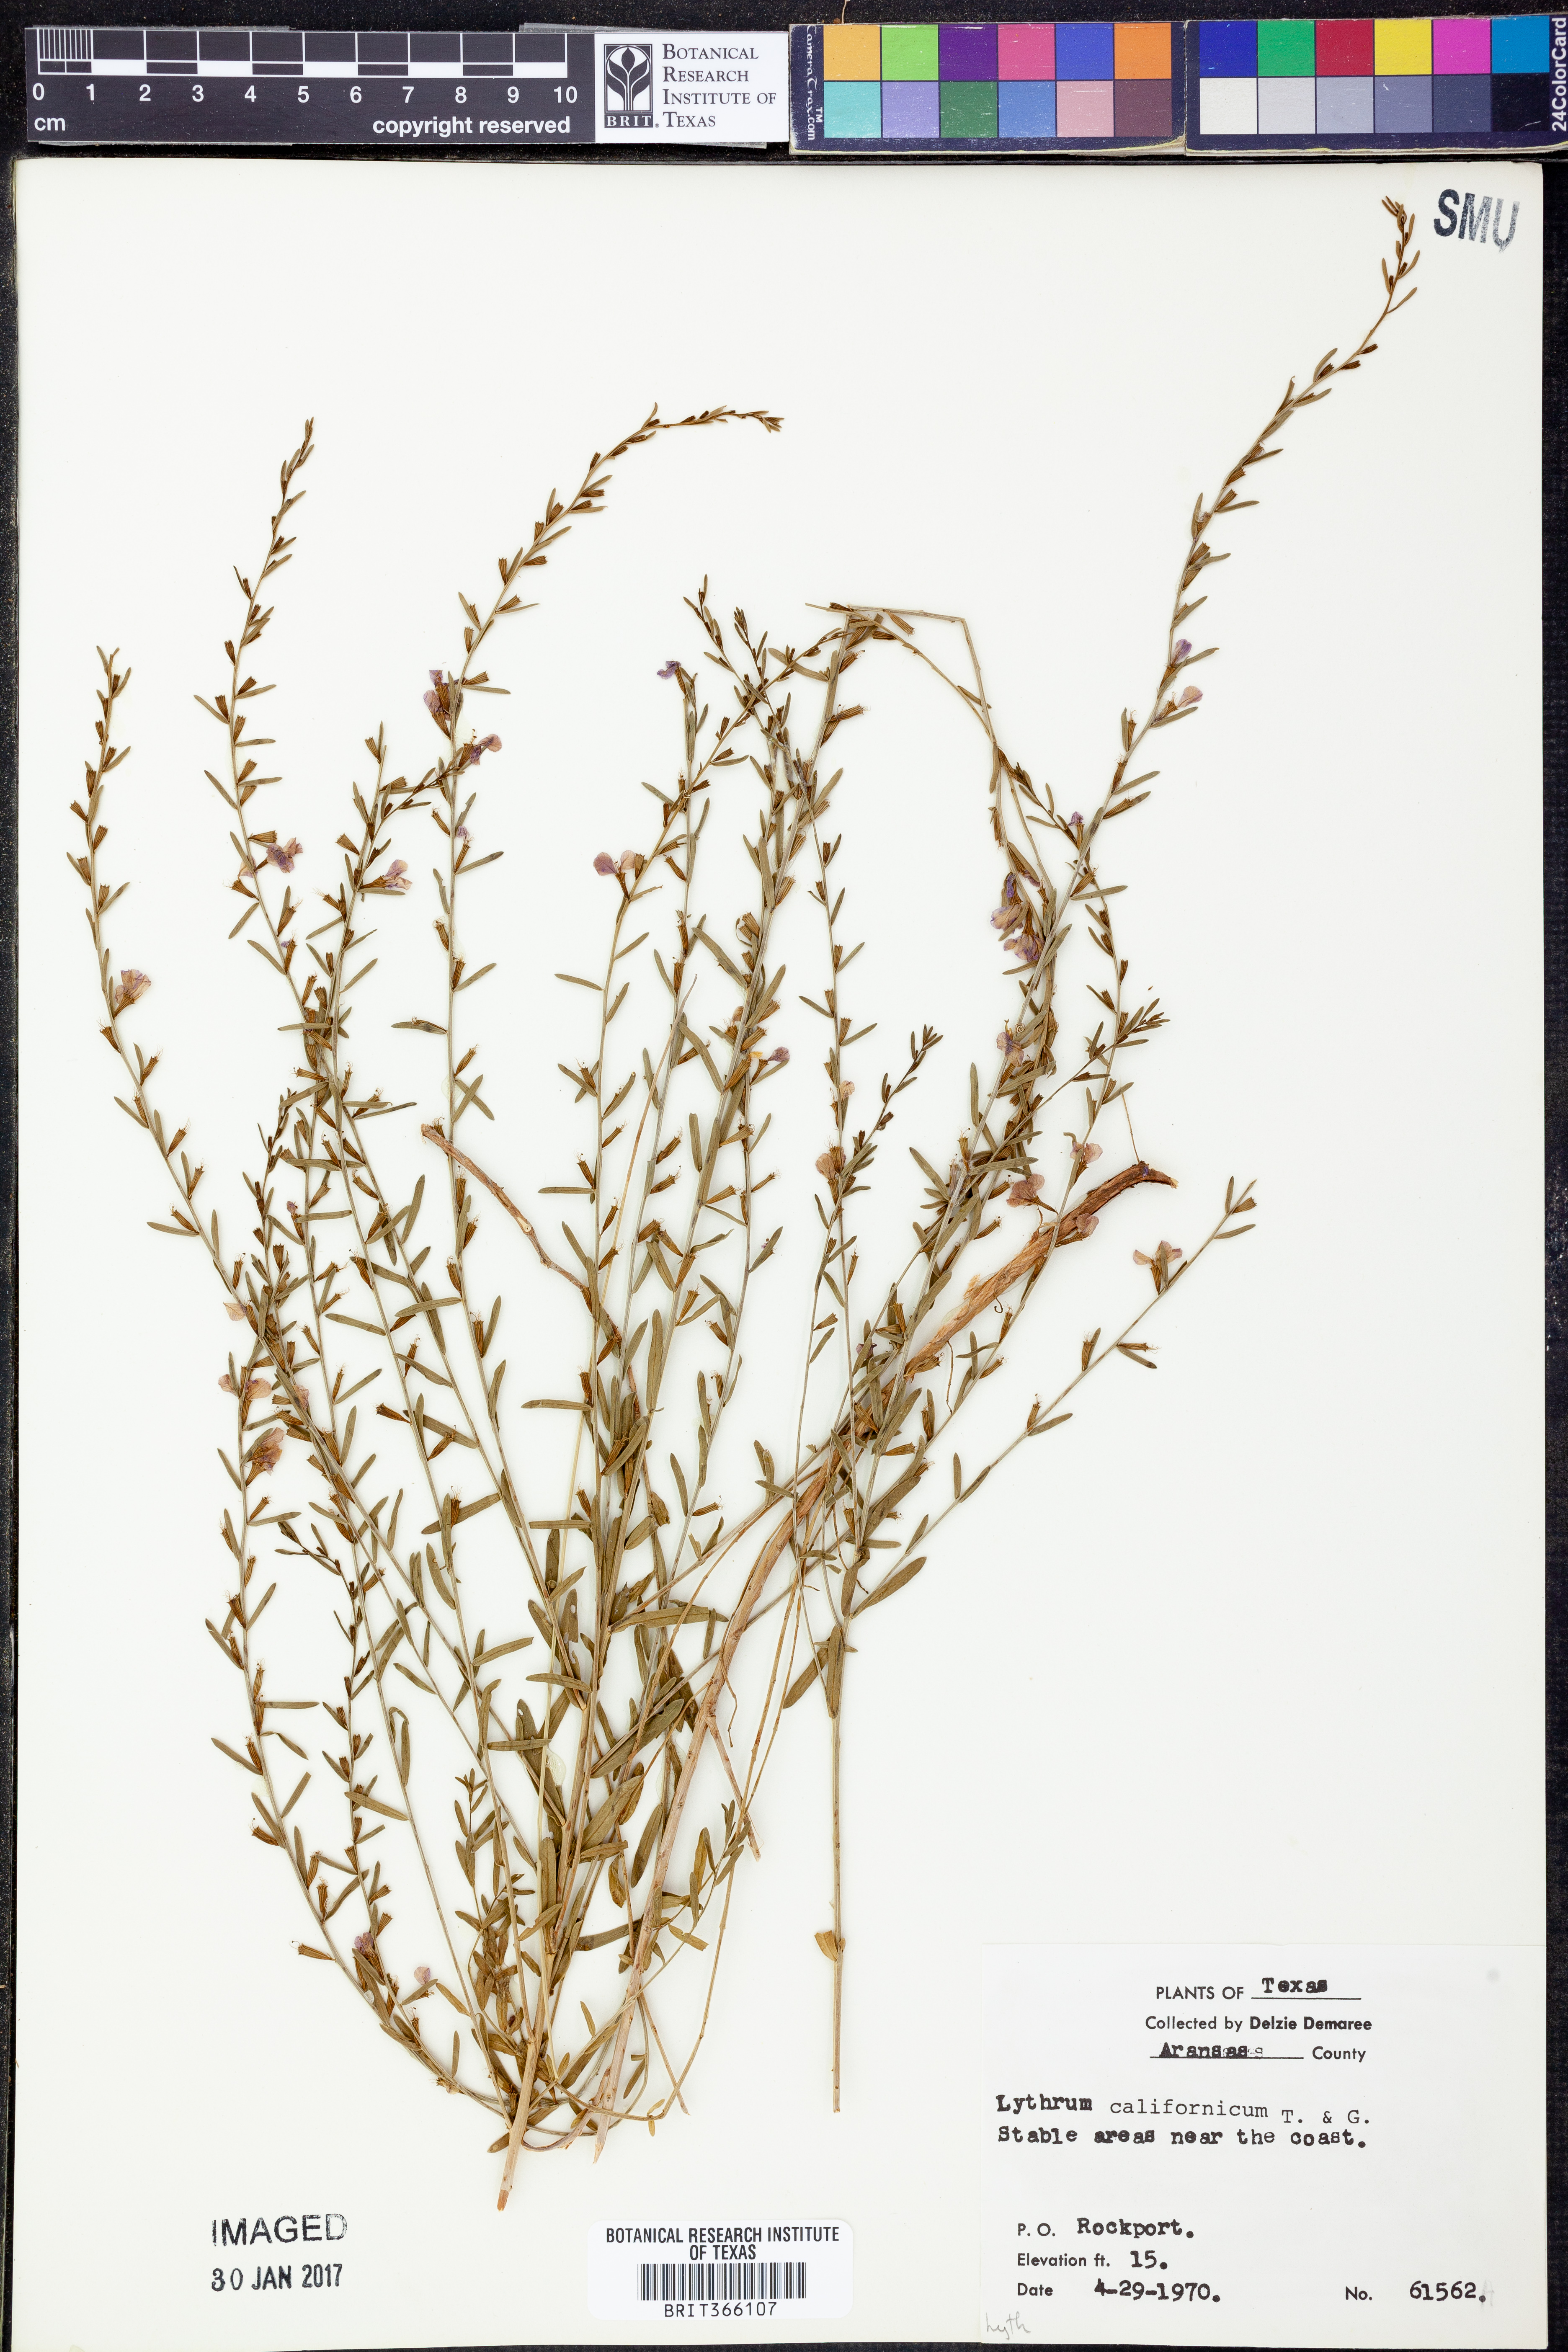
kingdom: Plantae
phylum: Tracheophyta
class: Magnoliopsida
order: Myrtales
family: Lythraceae
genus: Lythrum
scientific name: Lythrum californicum
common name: California loosestrife
